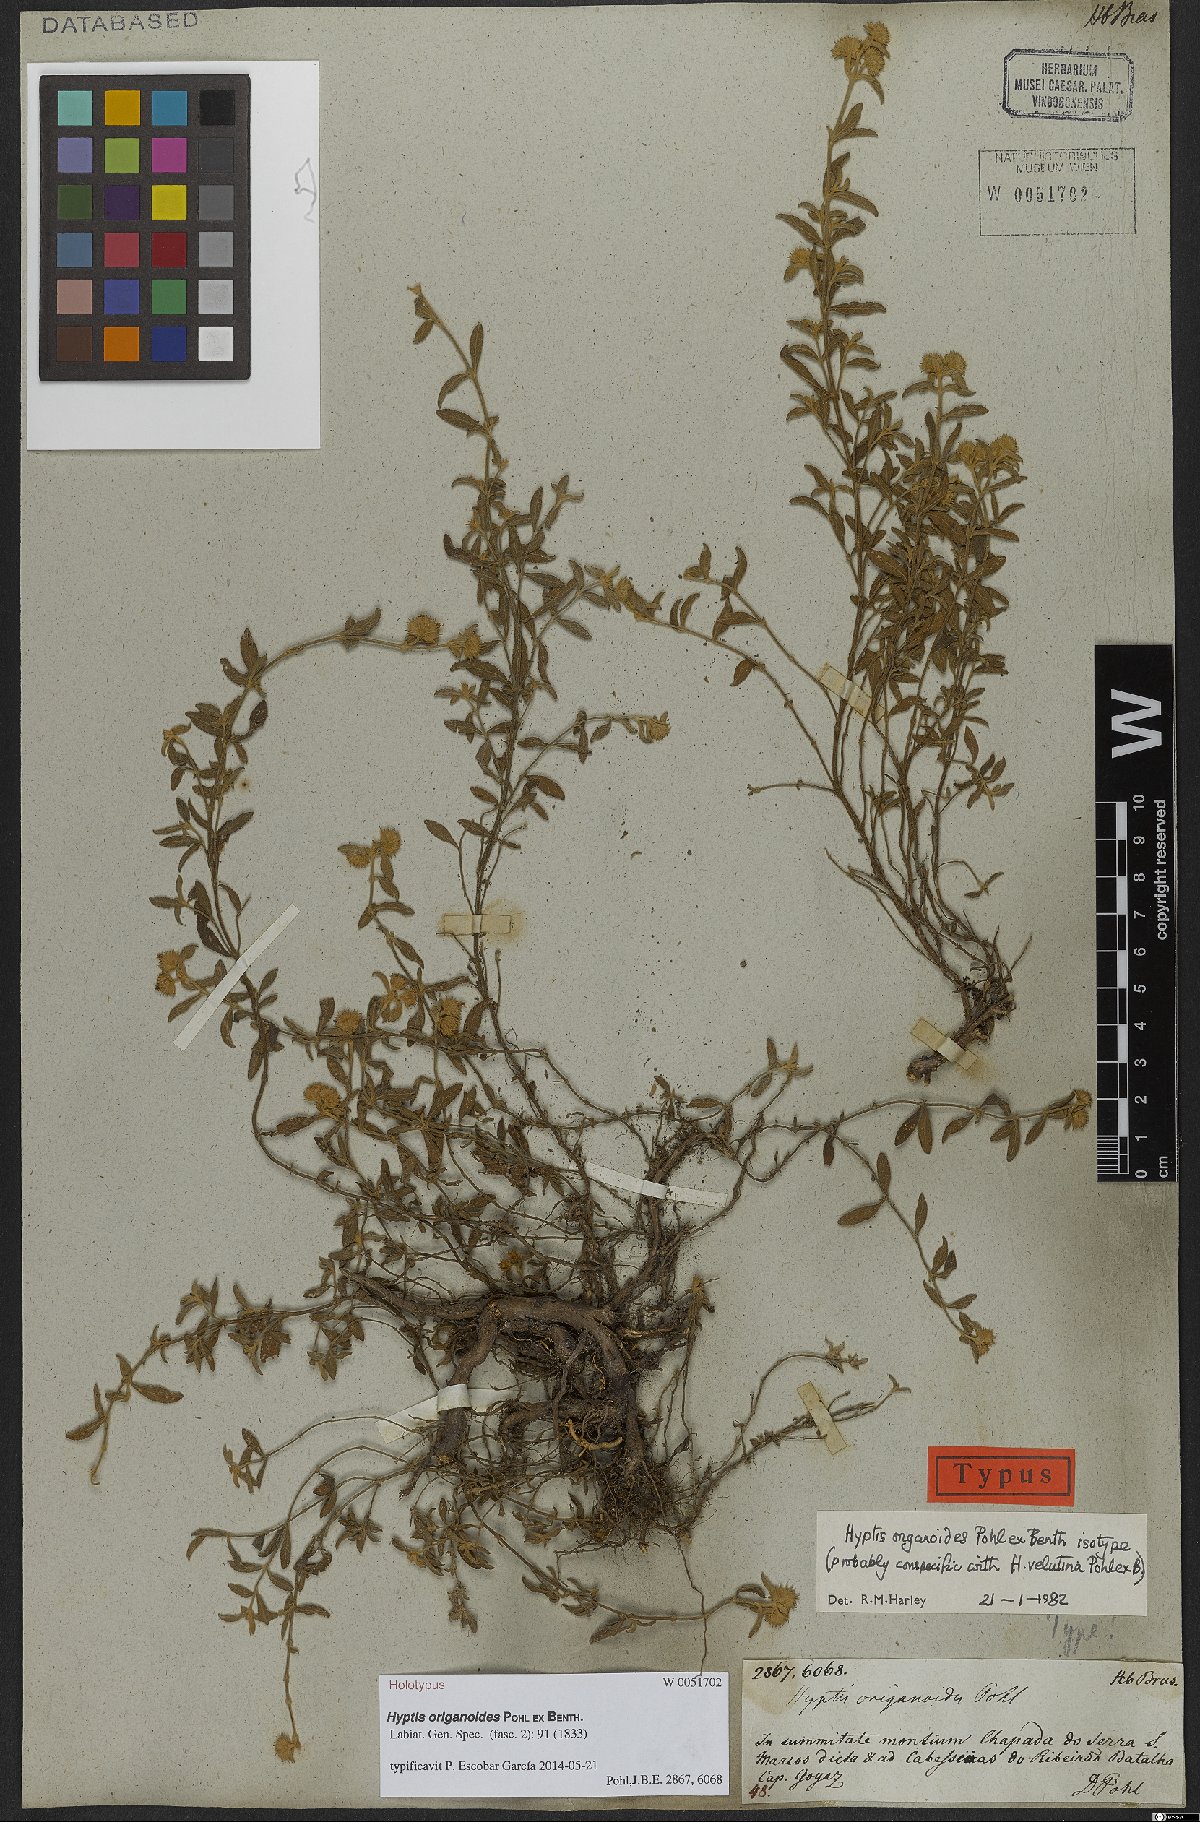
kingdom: Plantae
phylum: Tracheophyta
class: Magnoliopsida
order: Lamiales
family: Lamiaceae
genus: Hyptis
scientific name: Hyptis origanoides
